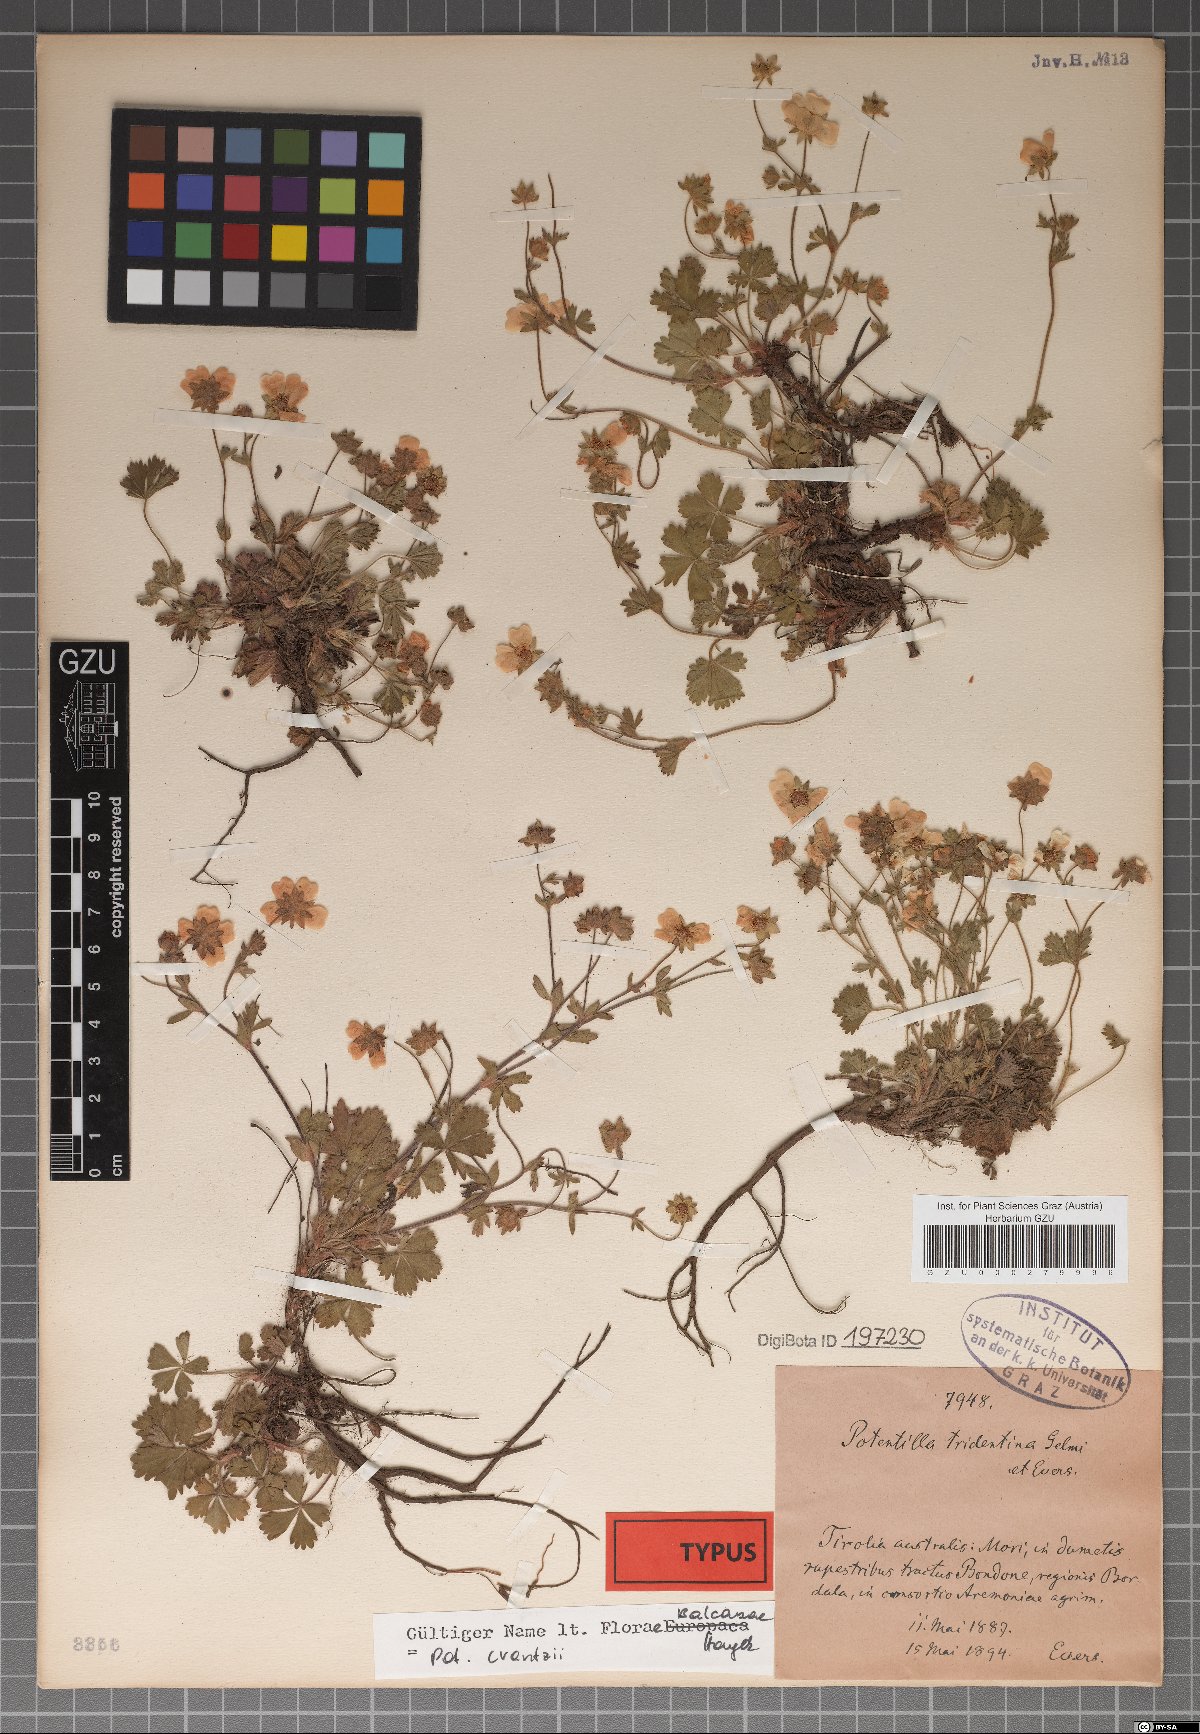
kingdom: Plantae
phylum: Tracheophyta
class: Magnoliopsida
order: Rosales
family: Rosaceae
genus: Potentilla
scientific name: Potentilla crantzii
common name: Alpine cinquefoil
